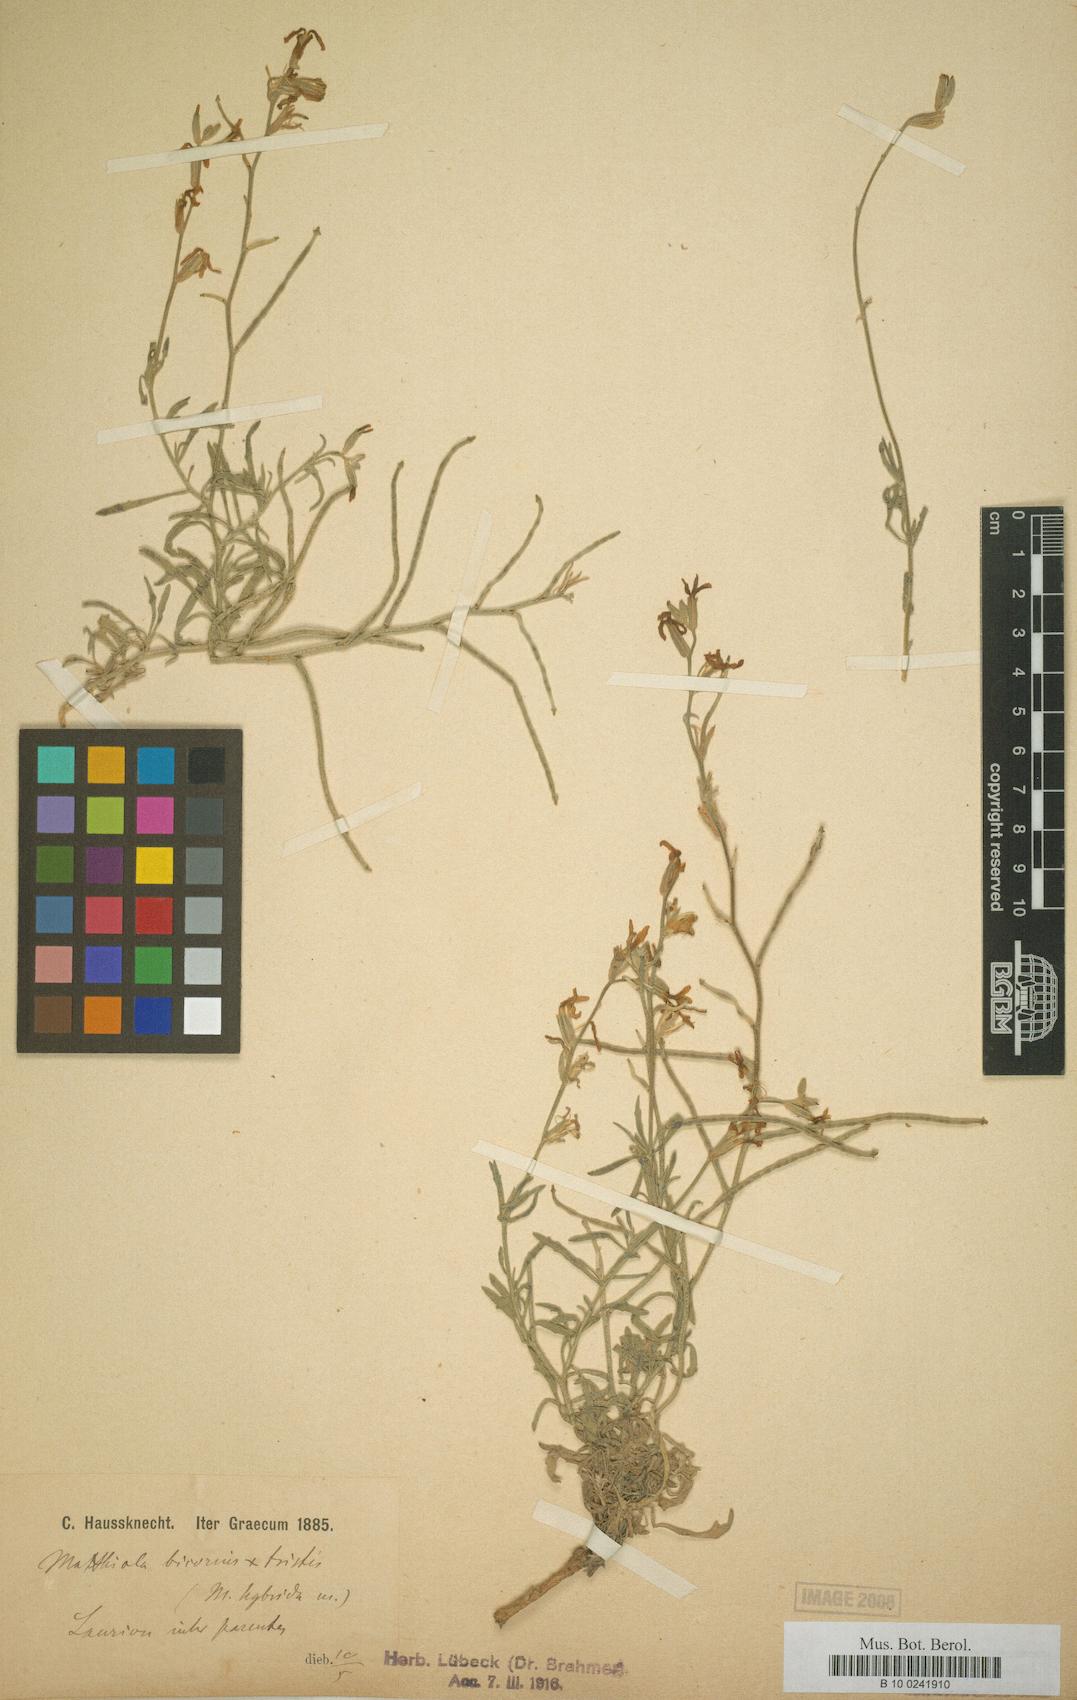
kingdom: Plantae
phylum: Tracheophyta
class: Magnoliopsida
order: Brassicales
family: Brassicaceae
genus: Matthiola
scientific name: Matthiola longipetala
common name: Night-scented stock
